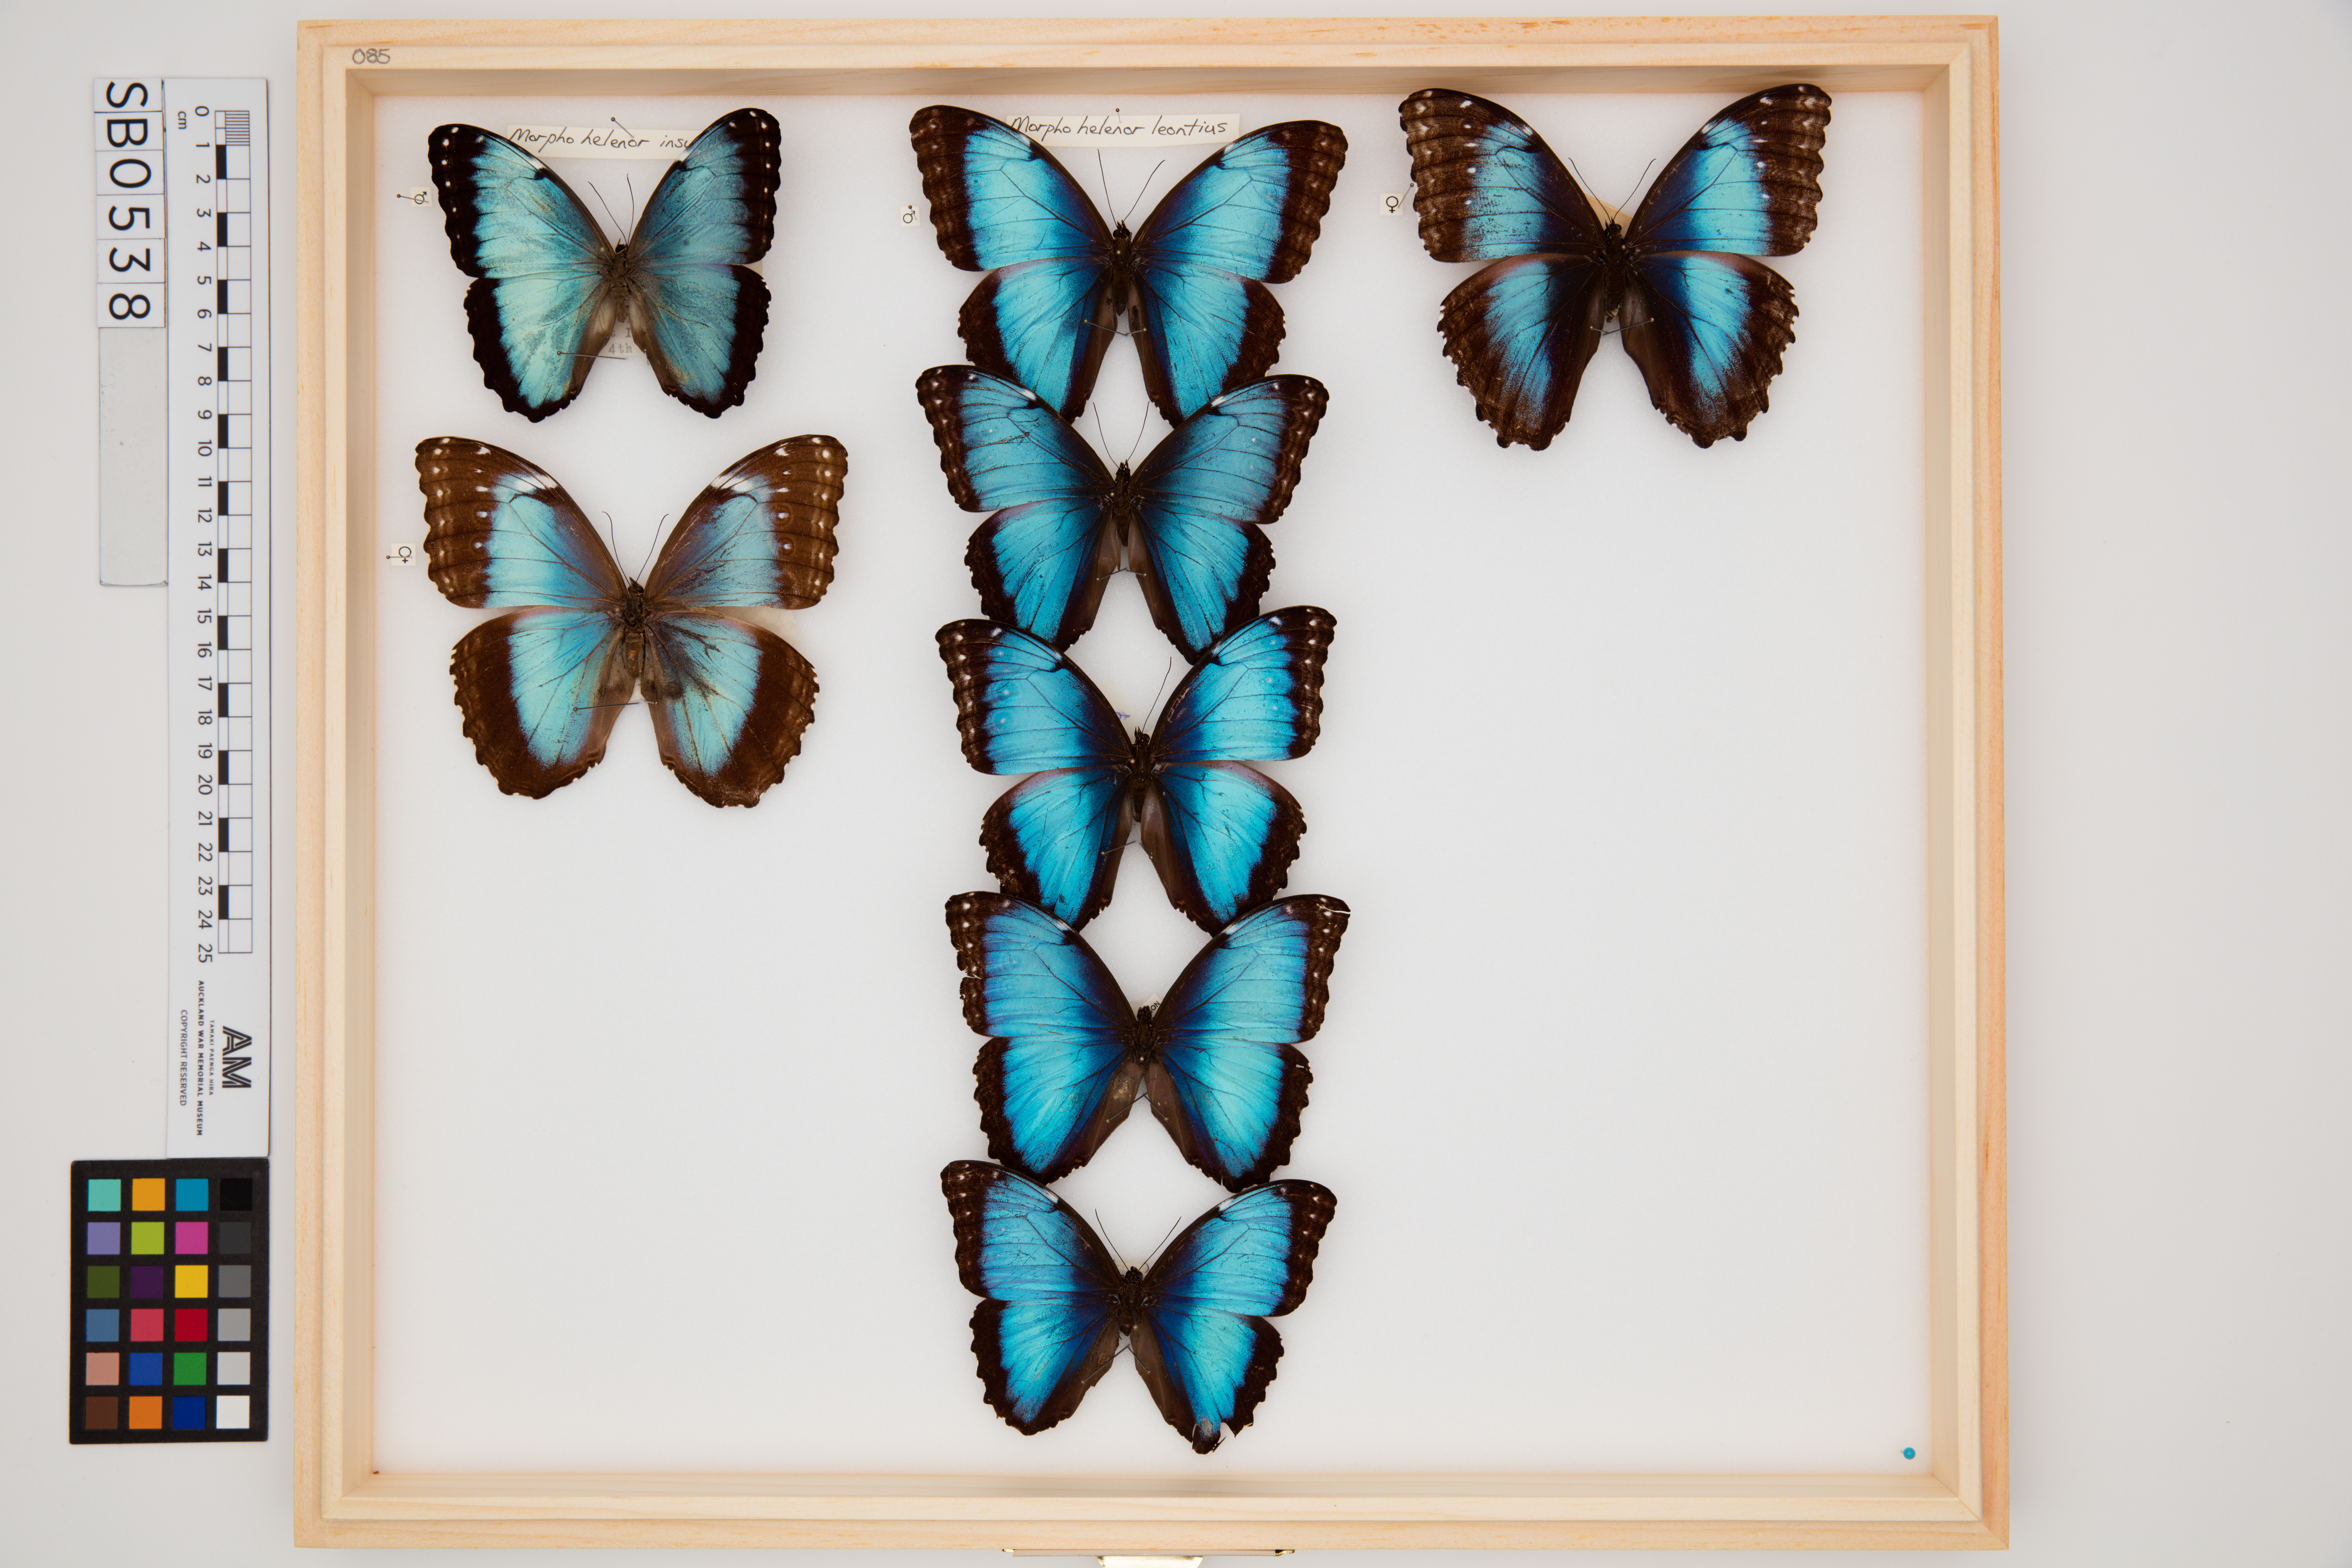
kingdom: Animalia
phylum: Arthropoda
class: Insecta
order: Lepidoptera
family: Nymphalidae
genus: Morpho
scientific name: Morpho helenor
